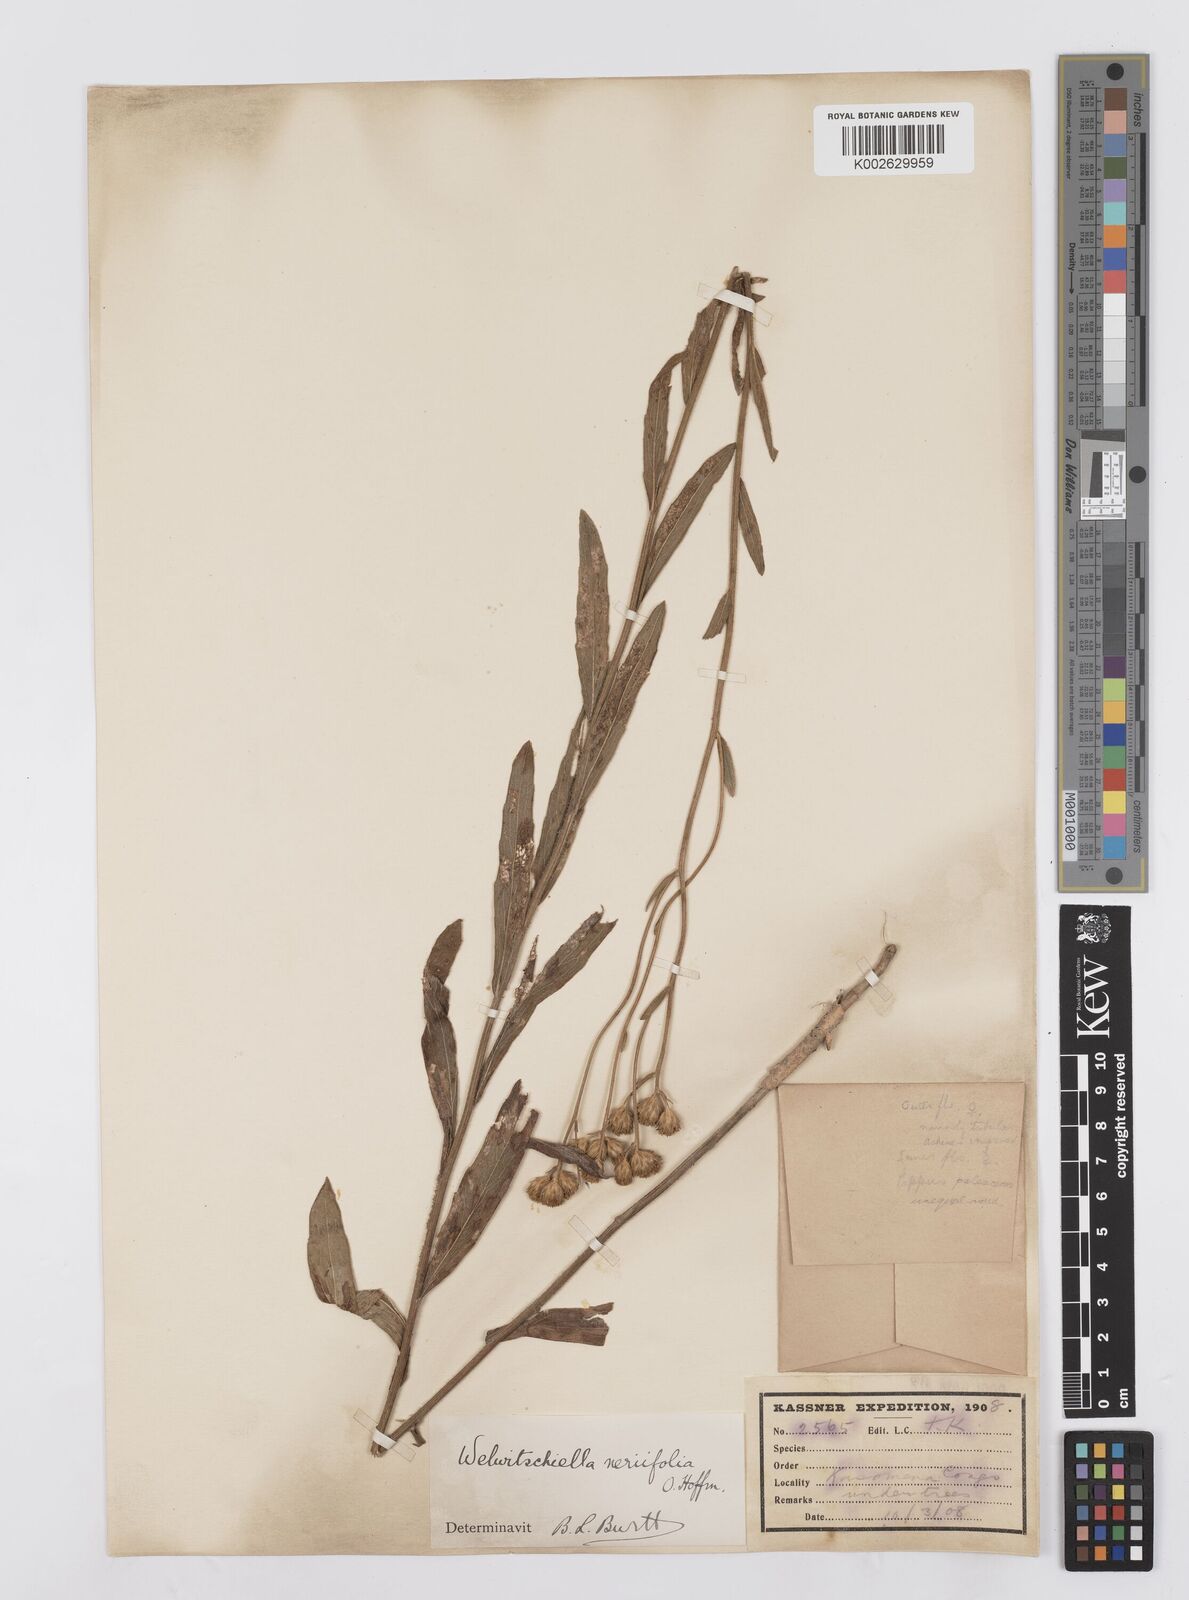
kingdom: Plantae
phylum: Tracheophyta
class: Magnoliopsida
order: Asterales
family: Asteraceae
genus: Welwitschiella
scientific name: Welwitschiella neriifolia
